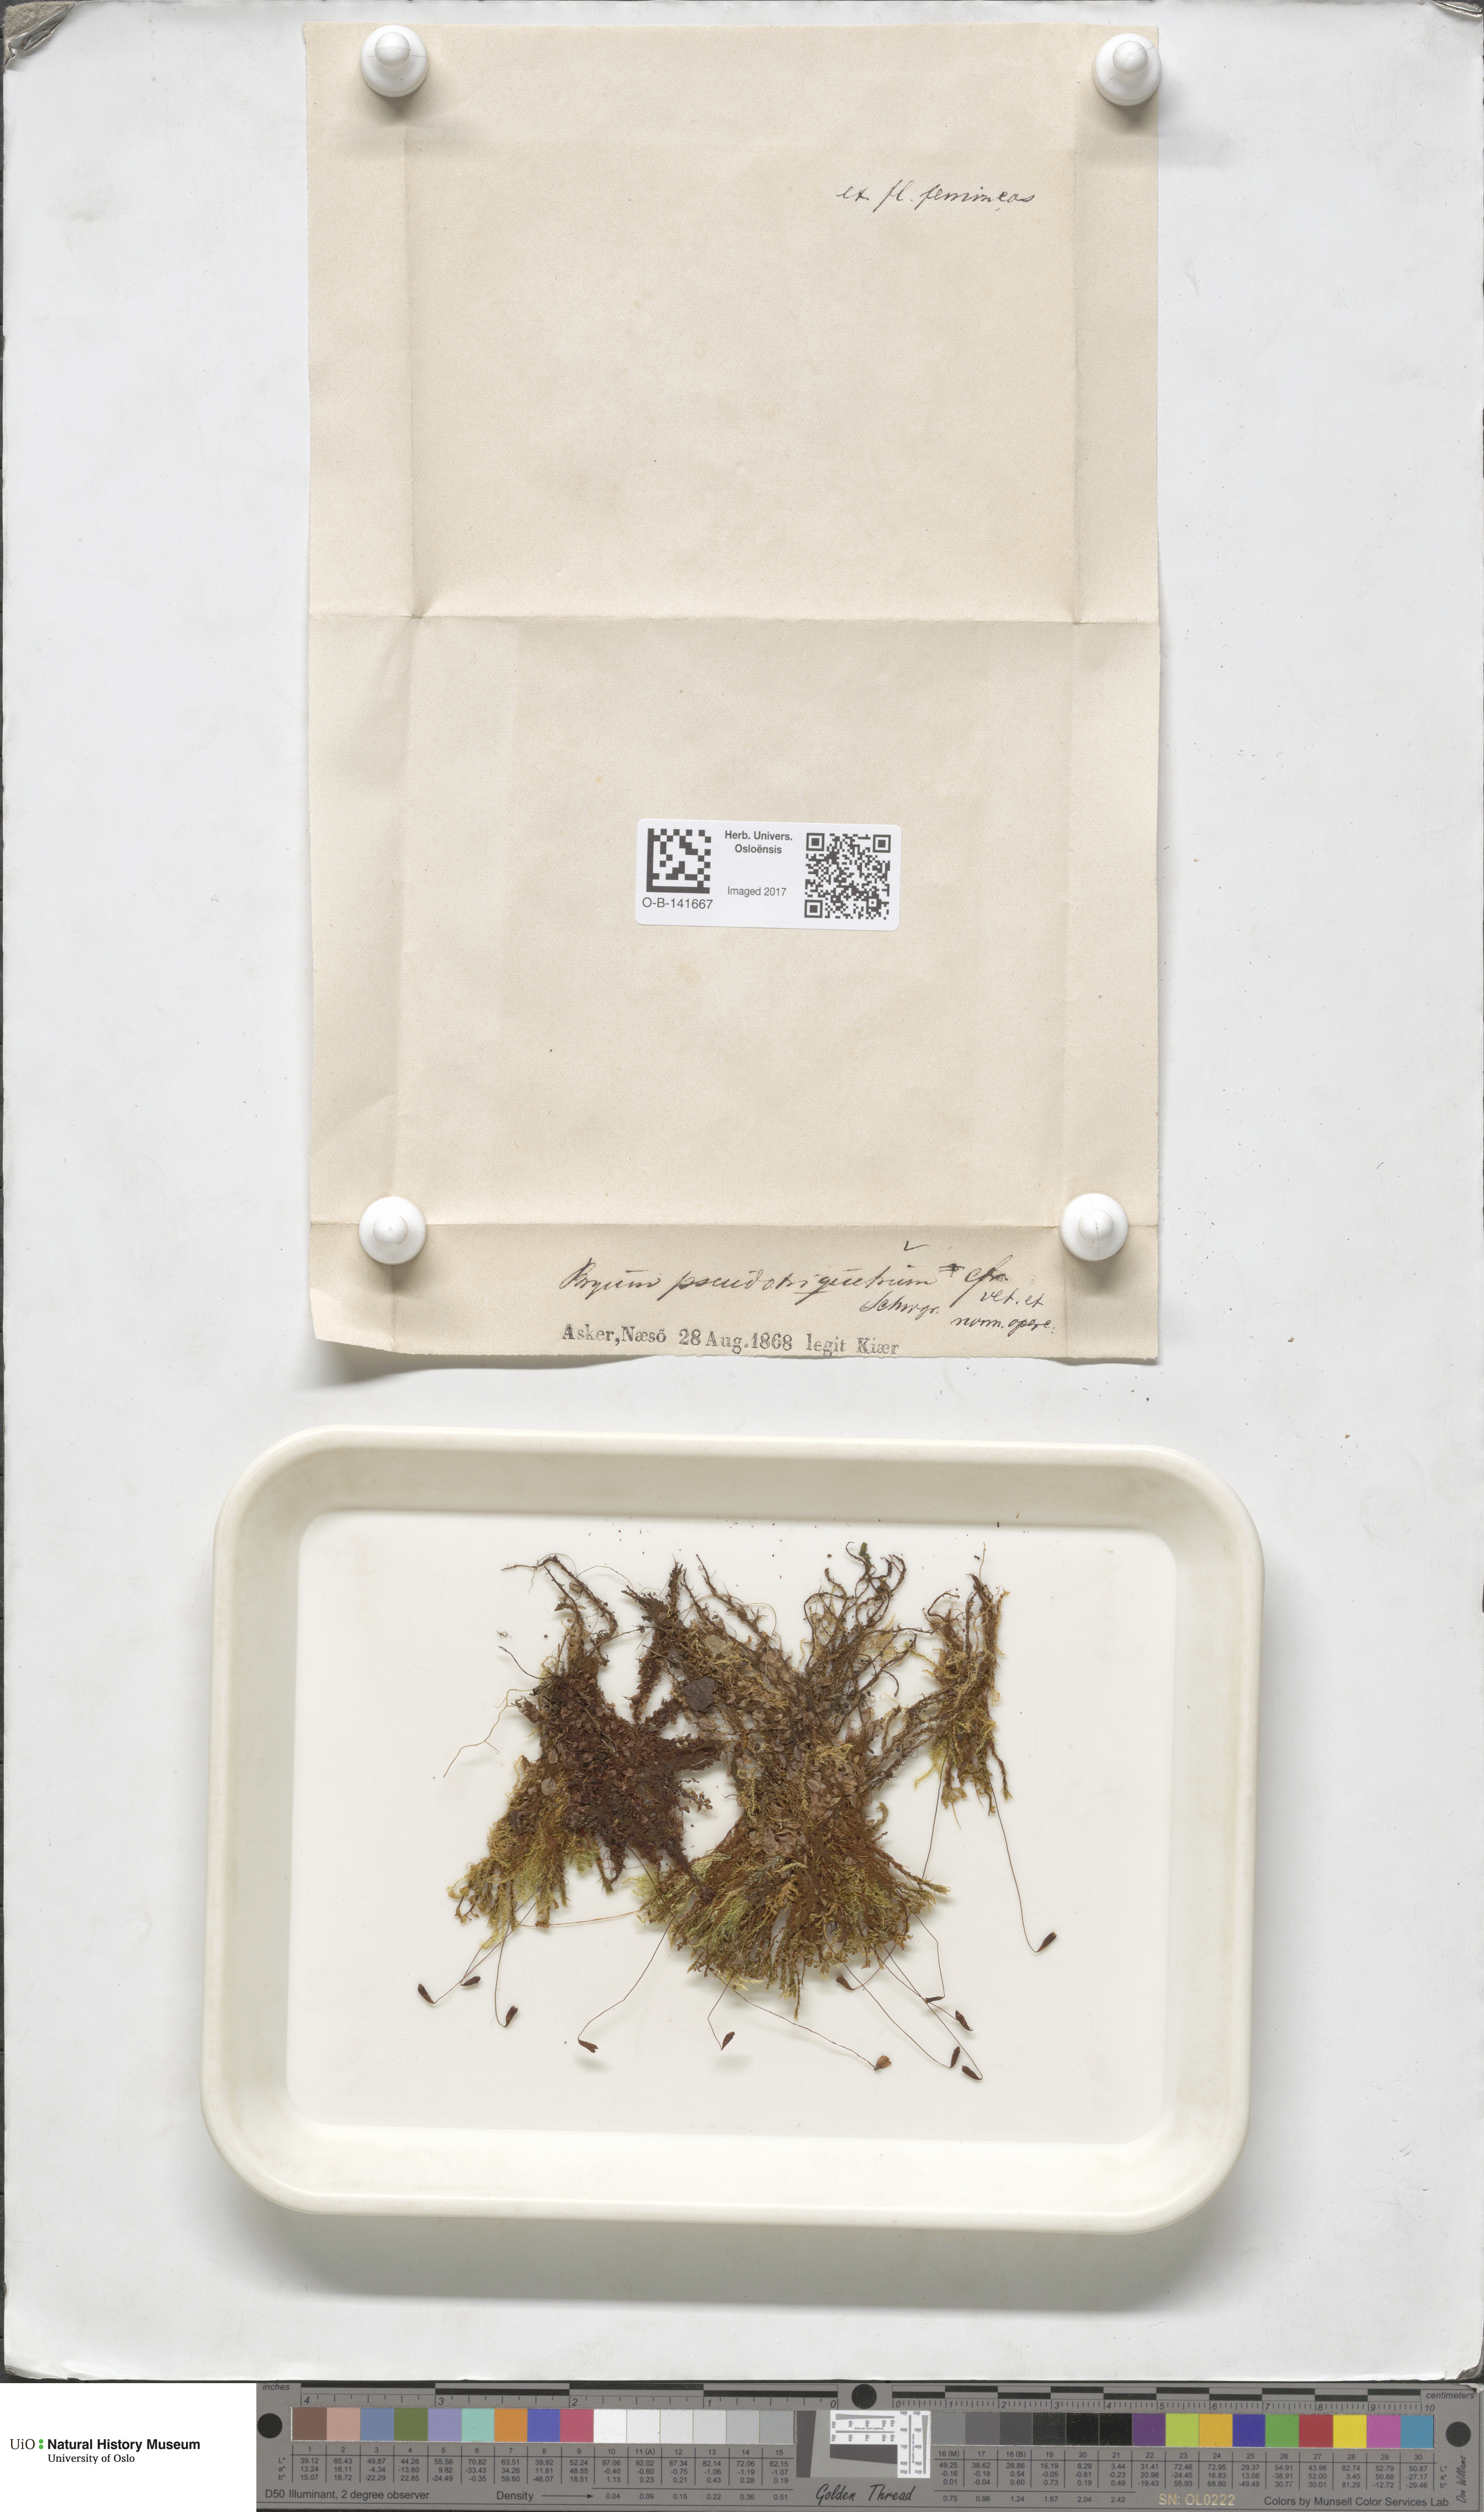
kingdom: Plantae
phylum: Bryophyta
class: Bryopsida
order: Bryales
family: Bryaceae
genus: Ptychostomum
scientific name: Ptychostomum pseudotriquetrum
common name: Long-leaved thread moss
